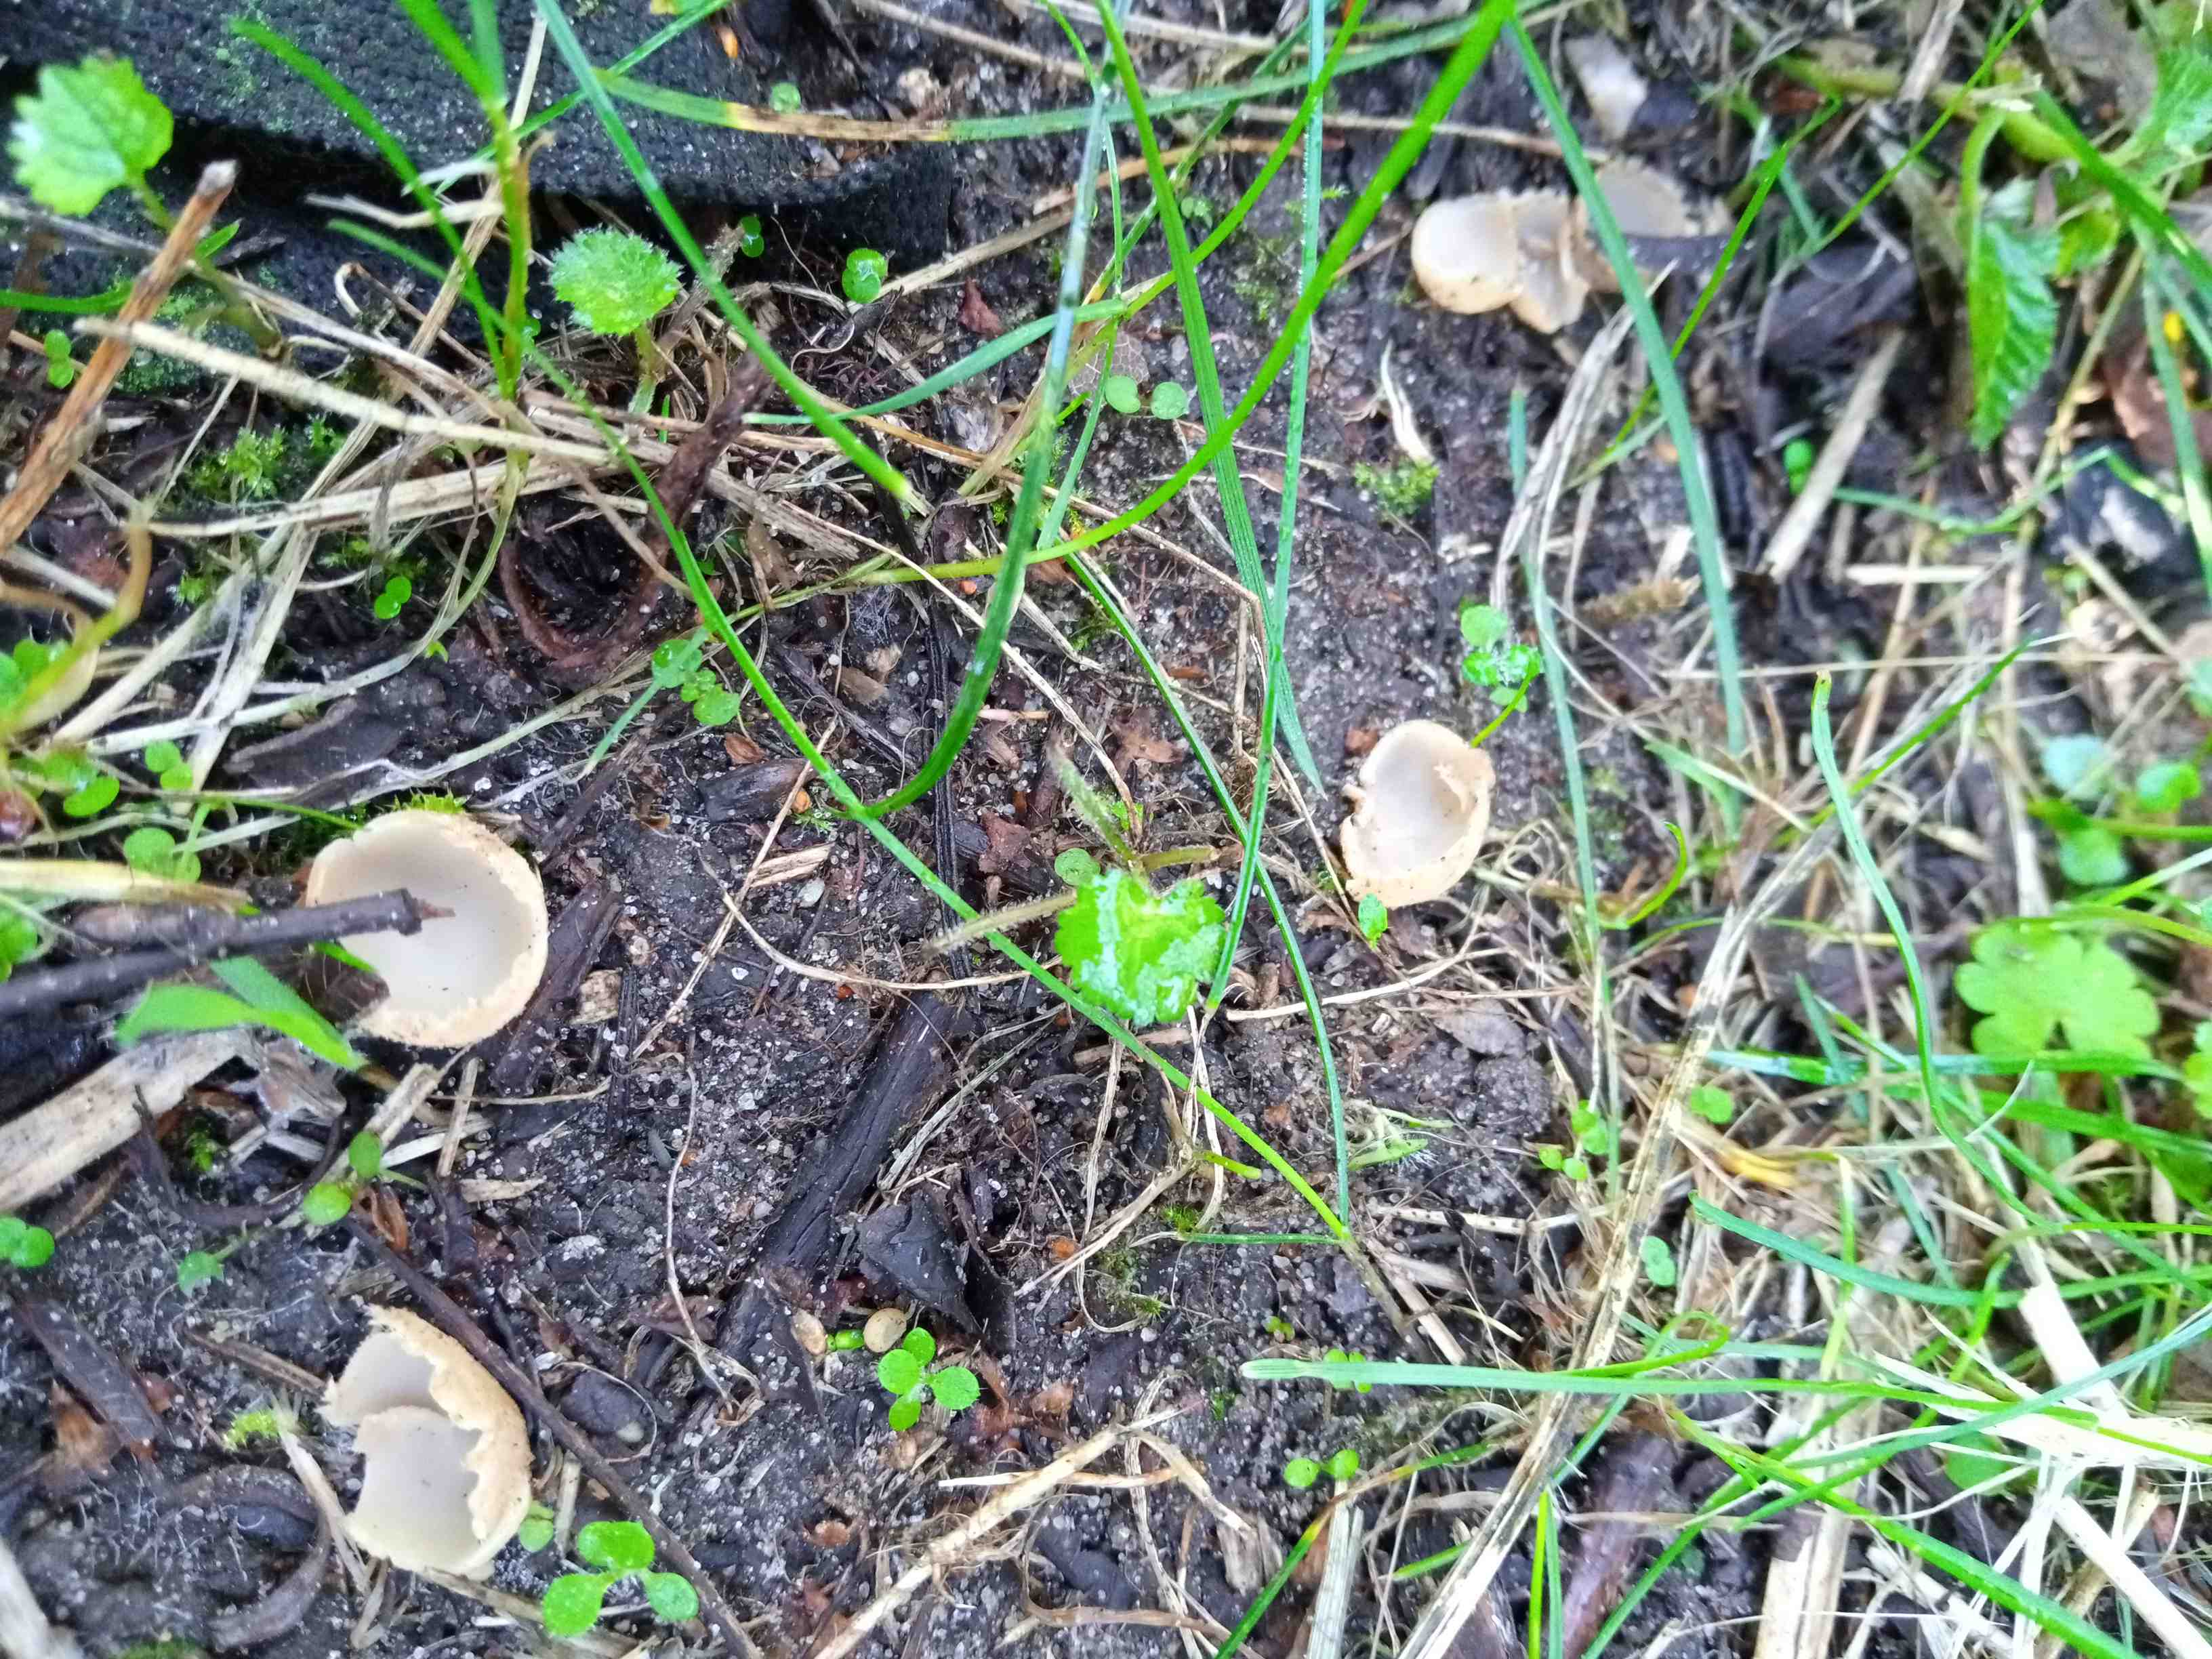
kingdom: Fungi
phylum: Ascomycota
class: Pezizomycetes
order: Pezizales
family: Pyronemataceae
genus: Tarzetta
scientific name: Tarzetta cupularis
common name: gulbrun pokalbæger
